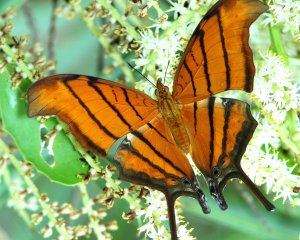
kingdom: Animalia
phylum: Arthropoda
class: Insecta
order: Lepidoptera
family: Nymphalidae
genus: Marpesia
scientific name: Marpesia petreus
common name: Ruddy Daggerwing
